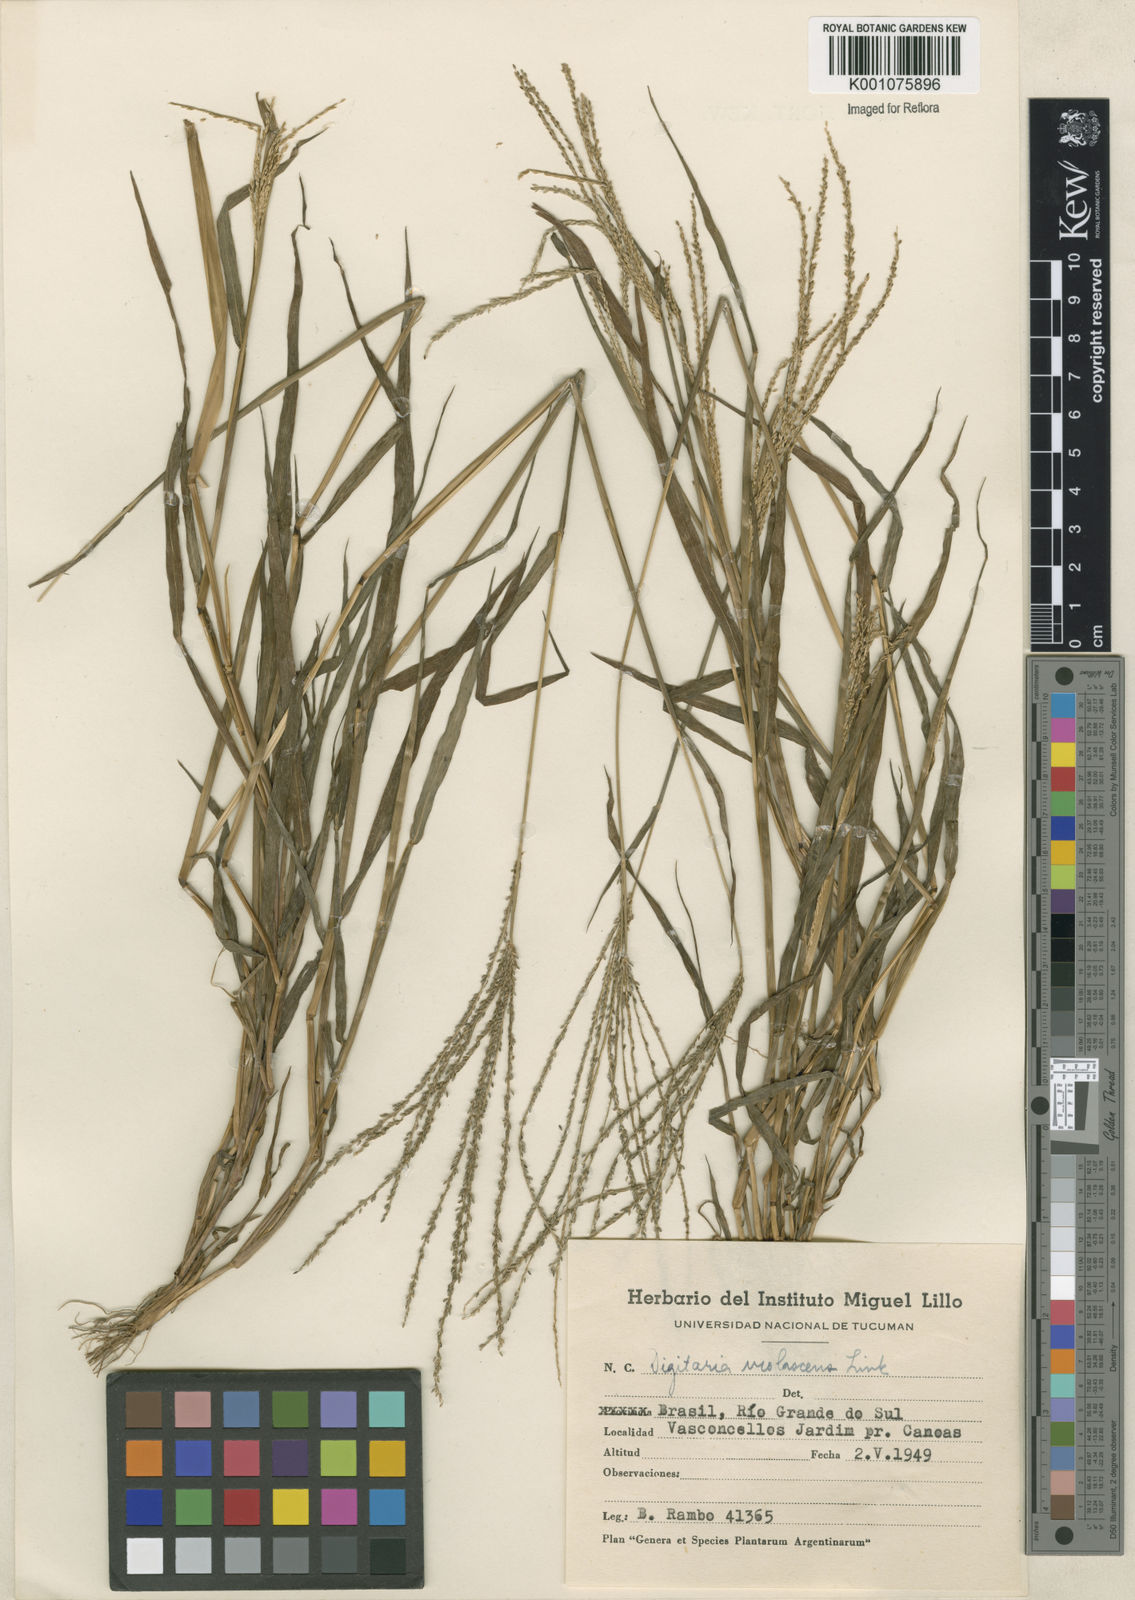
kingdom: Plantae
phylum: Tracheophyta
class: Liliopsida
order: Poales
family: Poaceae
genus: Digitaria
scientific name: Digitaria violascens
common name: Violet crabgrass
